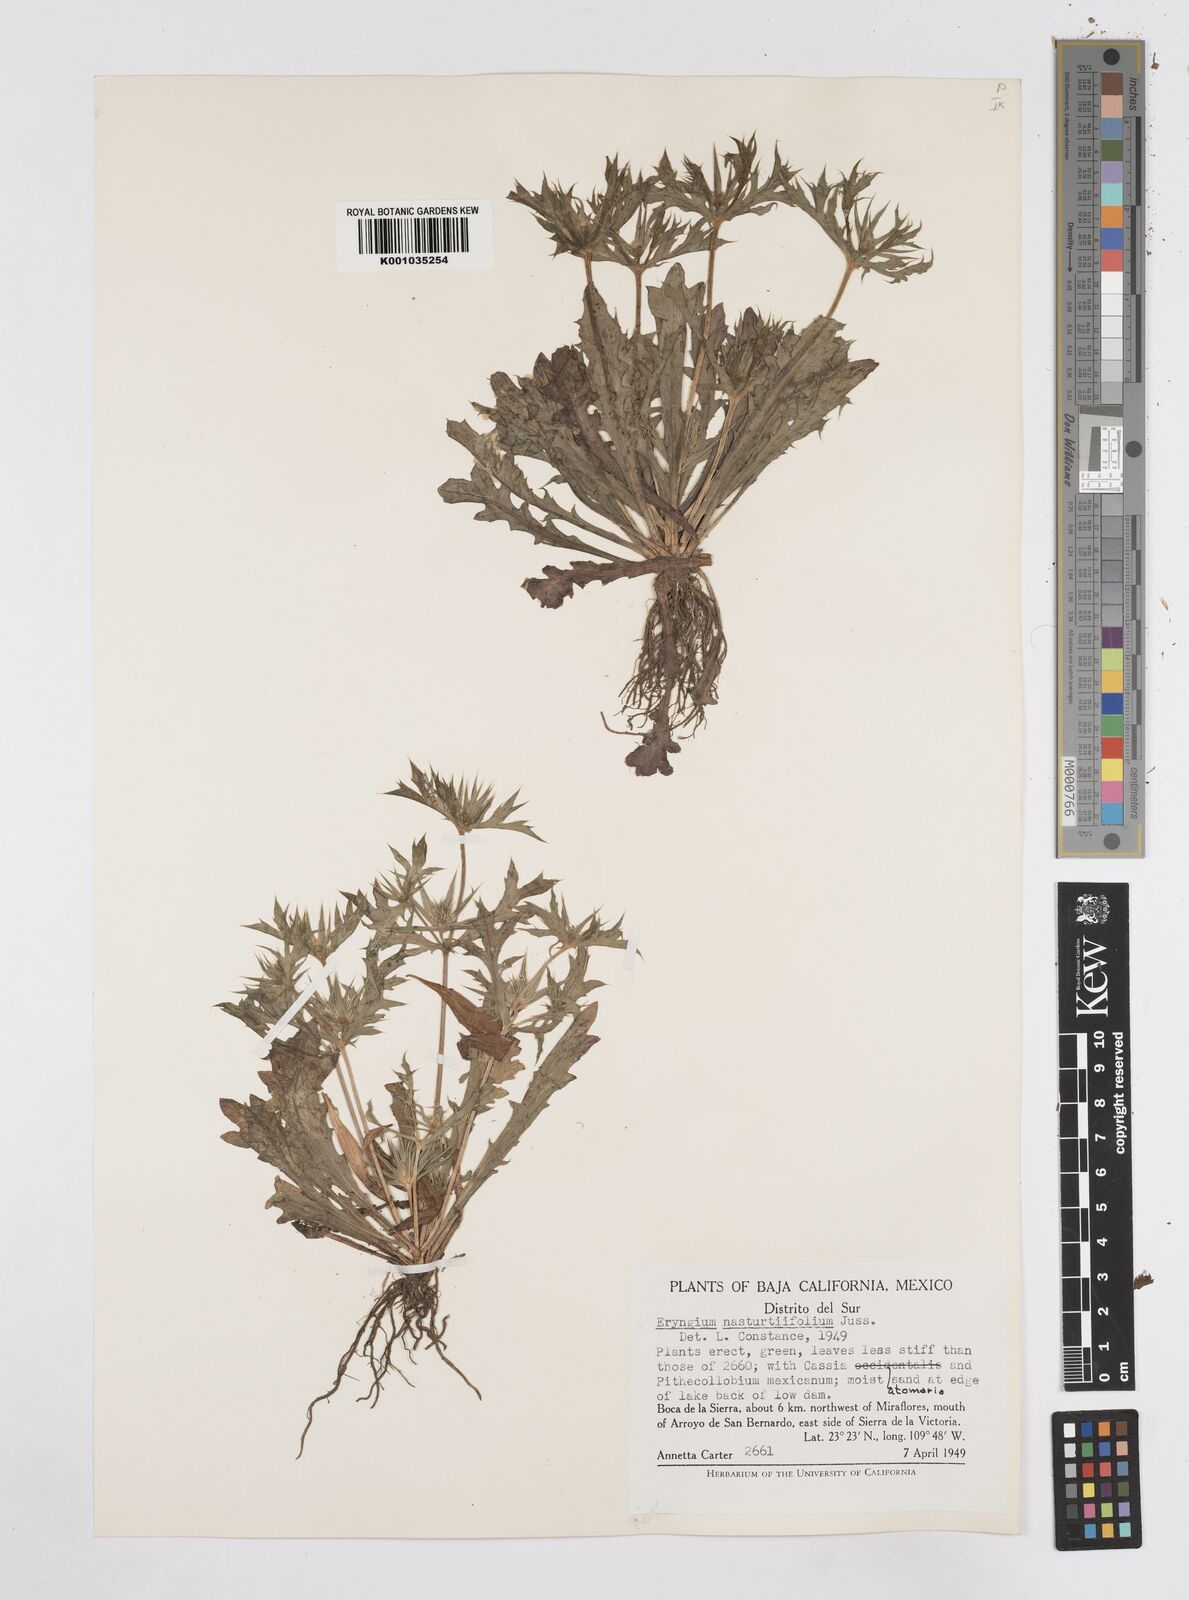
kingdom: Plantae
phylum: Tracheophyta
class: Magnoliopsida
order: Apiales
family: Apiaceae
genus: Eryngium
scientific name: Eryngium nasturtiifolium
